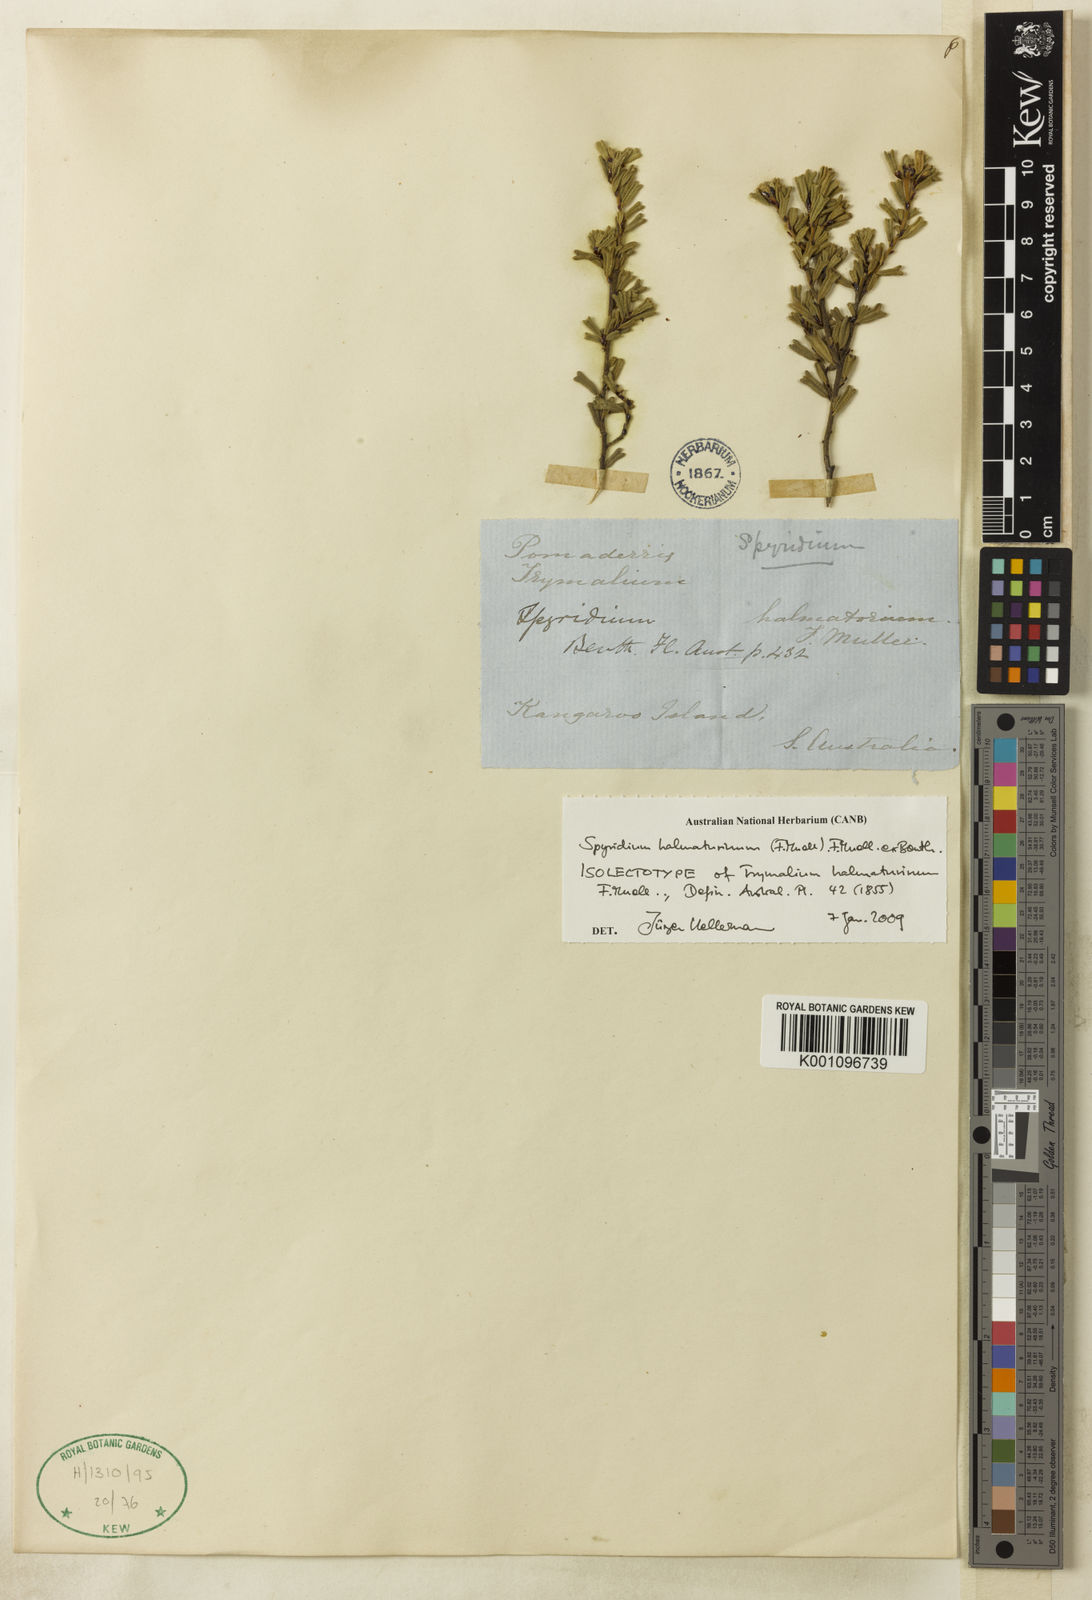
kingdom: Plantae
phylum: Tracheophyta
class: Magnoliopsida
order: Rosales
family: Rhamnaceae
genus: Spyridium
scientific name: Spyridium halmaturinum
